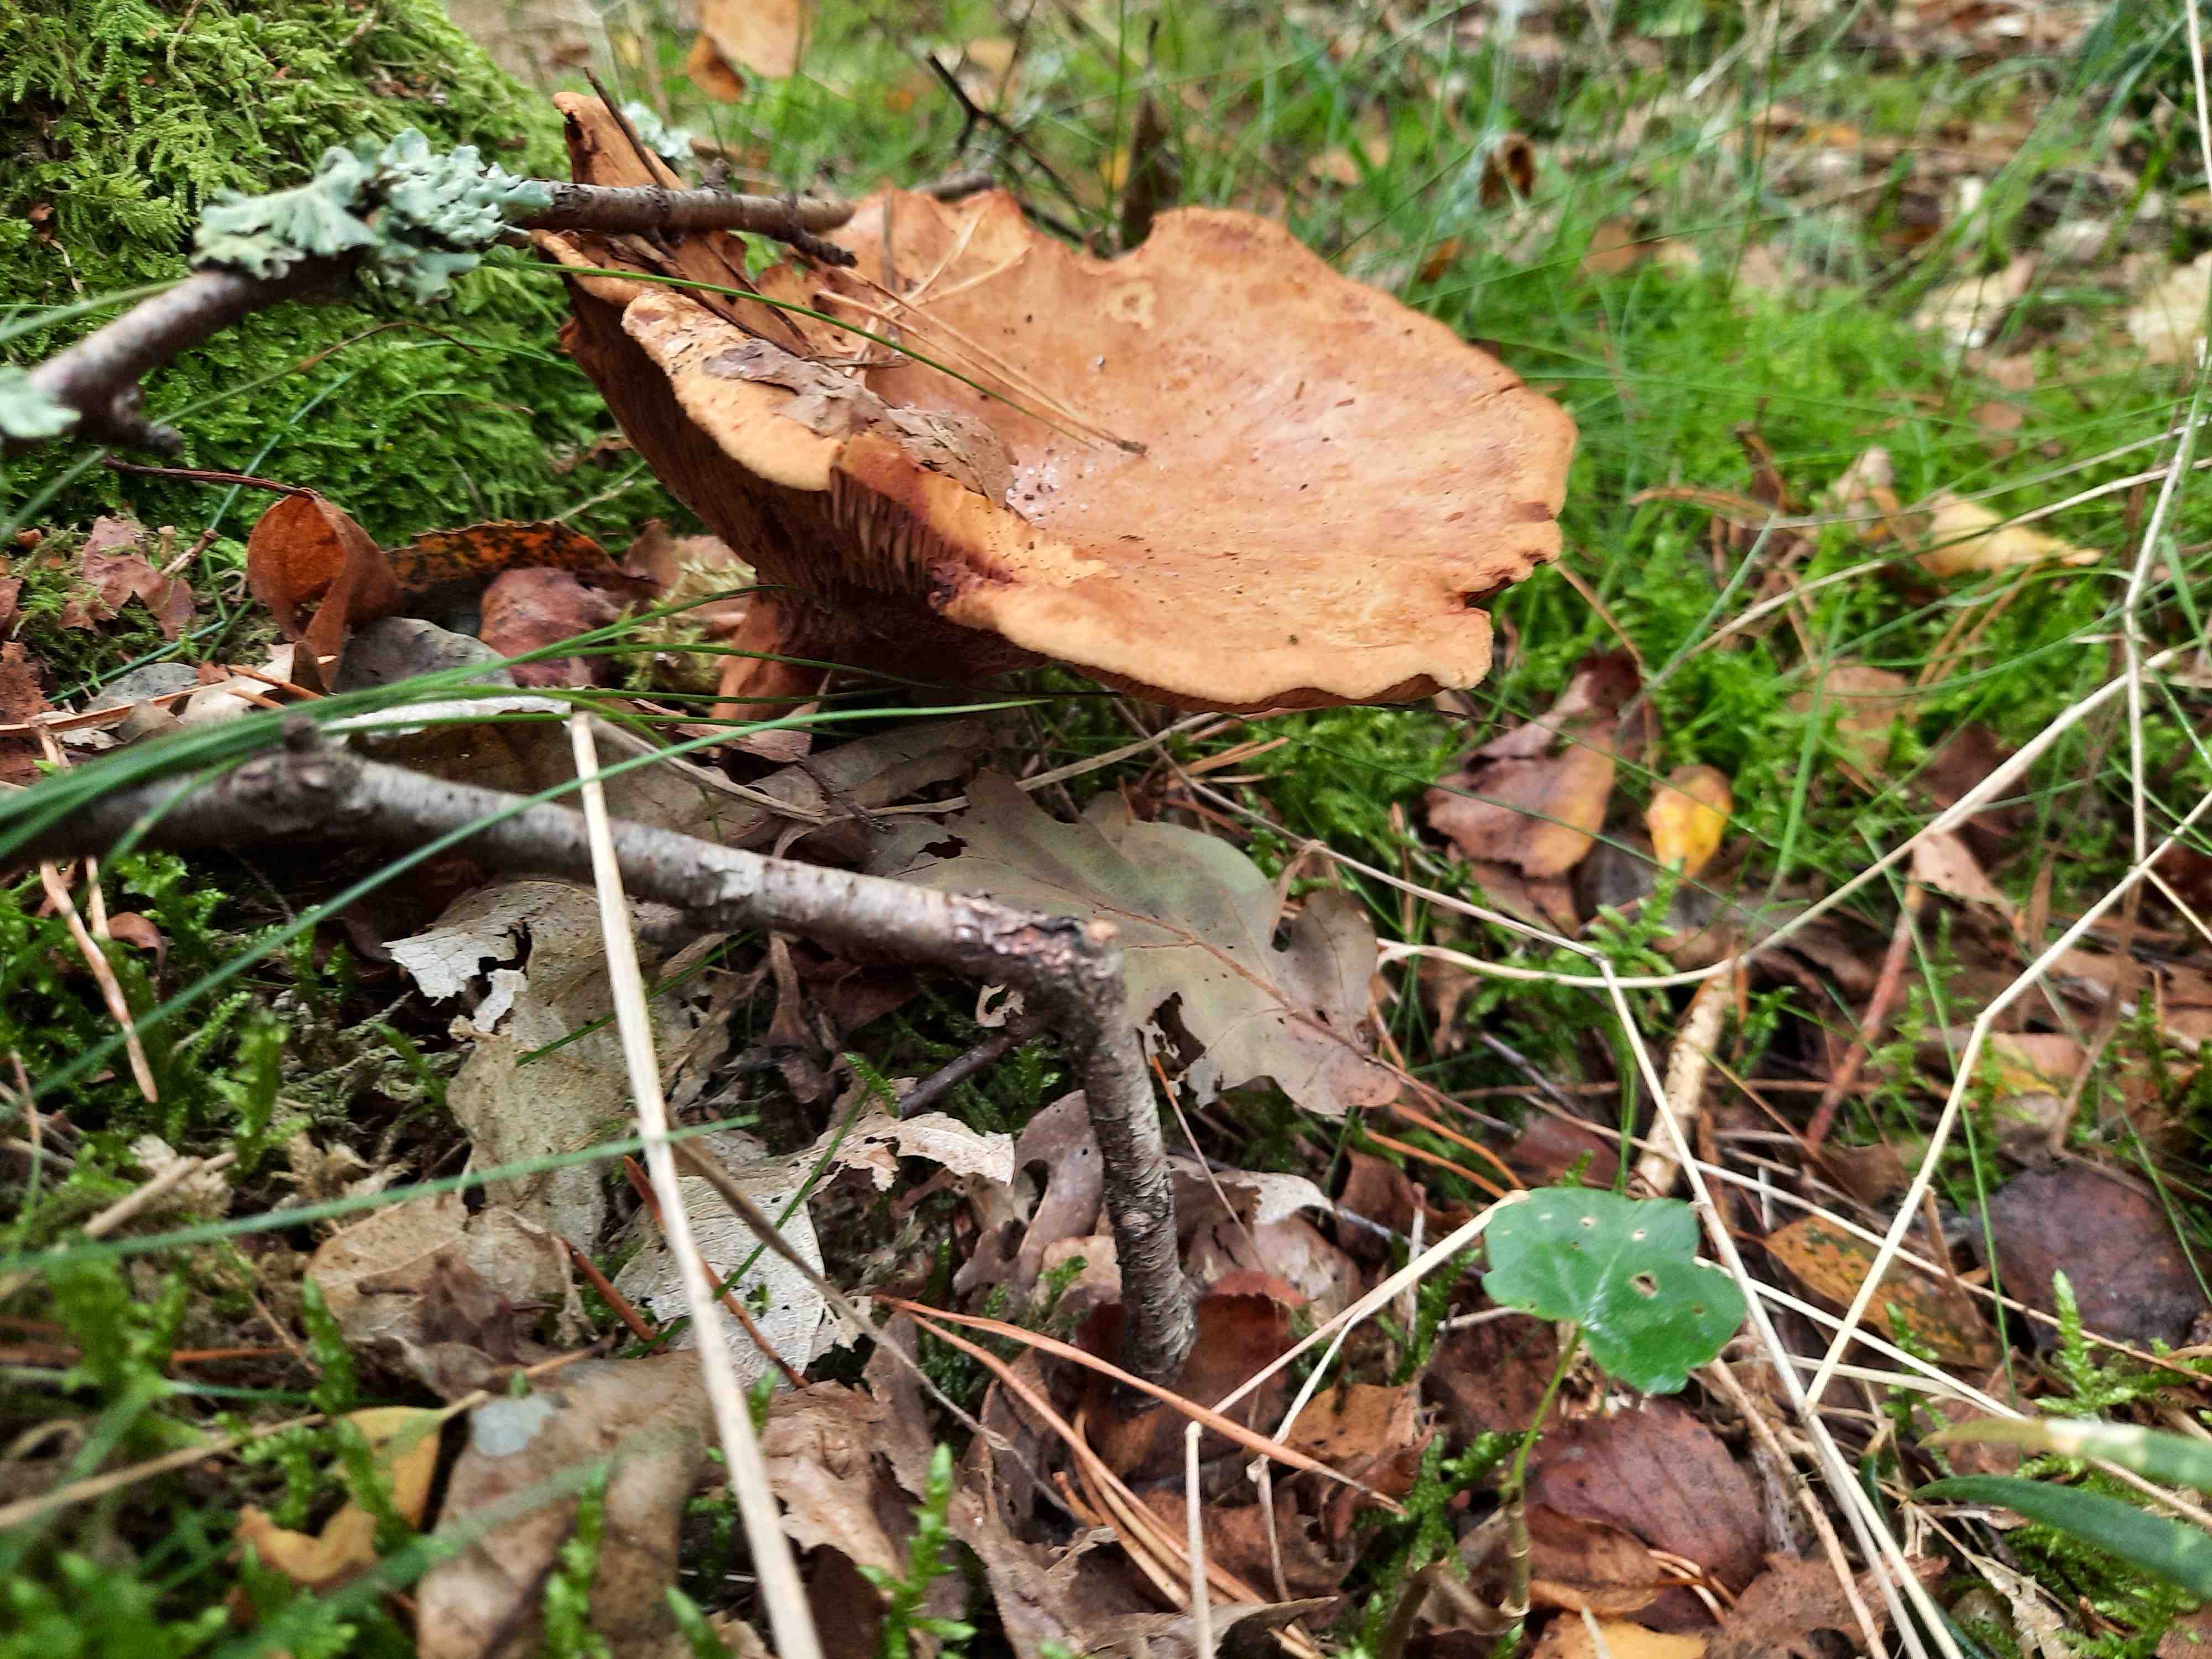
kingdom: Fungi
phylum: Basidiomycota
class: Agaricomycetes
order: Boletales
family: Paxillaceae
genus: Paxillus
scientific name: Paxillus involutus
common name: almindelig netbladhat
